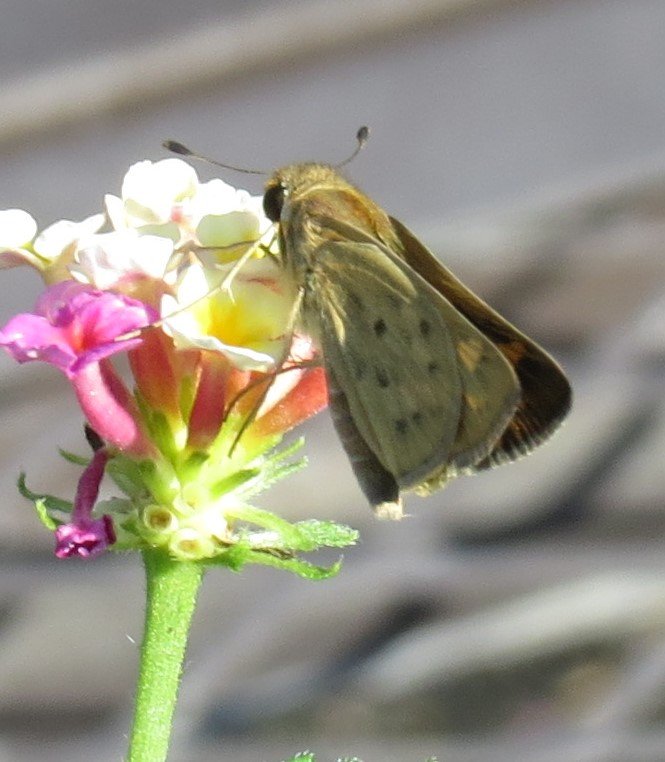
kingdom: Animalia
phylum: Arthropoda
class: Insecta
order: Lepidoptera
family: Hesperiidae
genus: Hylephila
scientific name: Hylephila phyleus
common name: Fiery Skipper
